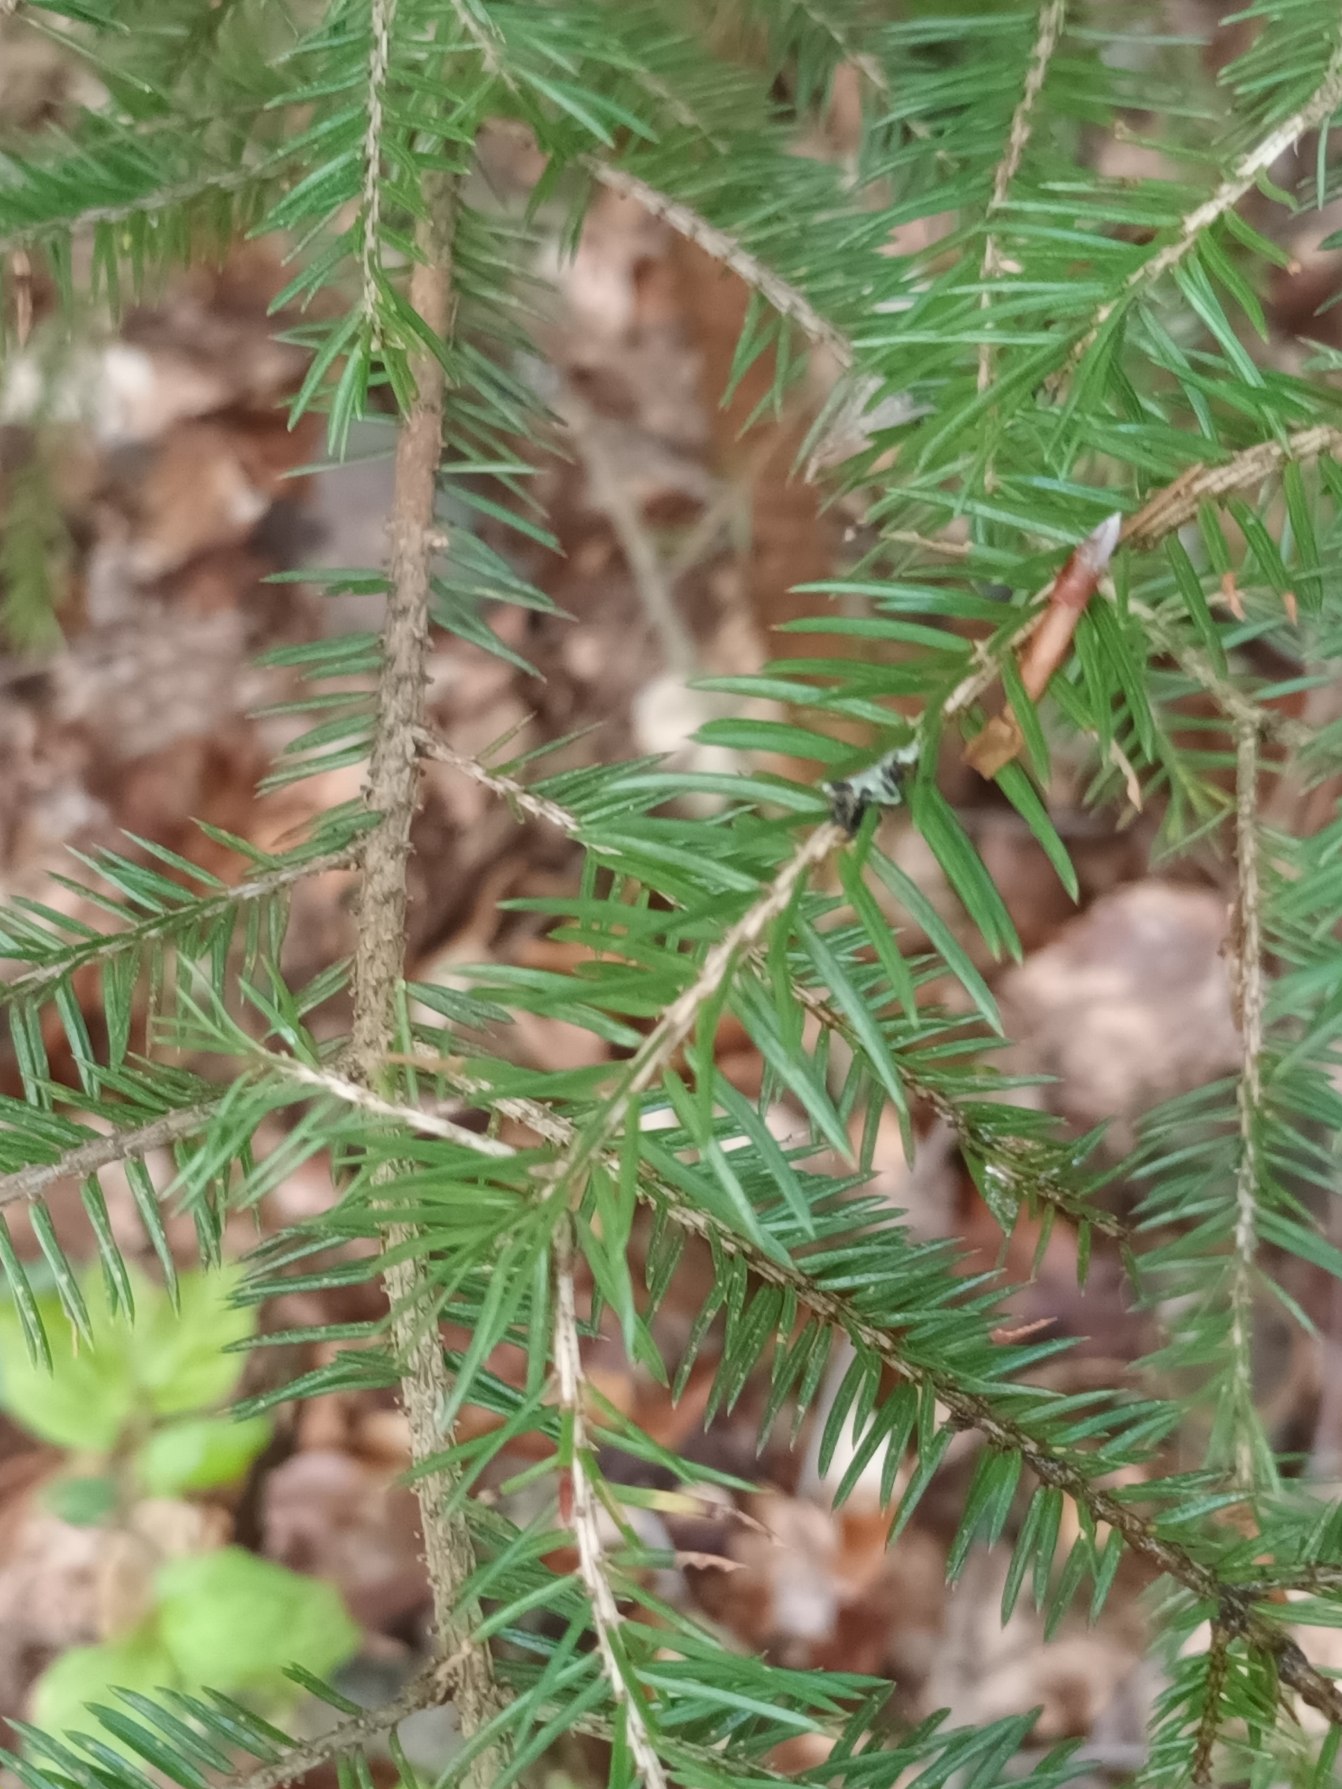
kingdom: Plantae
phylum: Tracheophyta
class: Pinopsida
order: Pinales
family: Pinaceae
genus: Picea
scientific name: Picea abies
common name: Rød-gran
